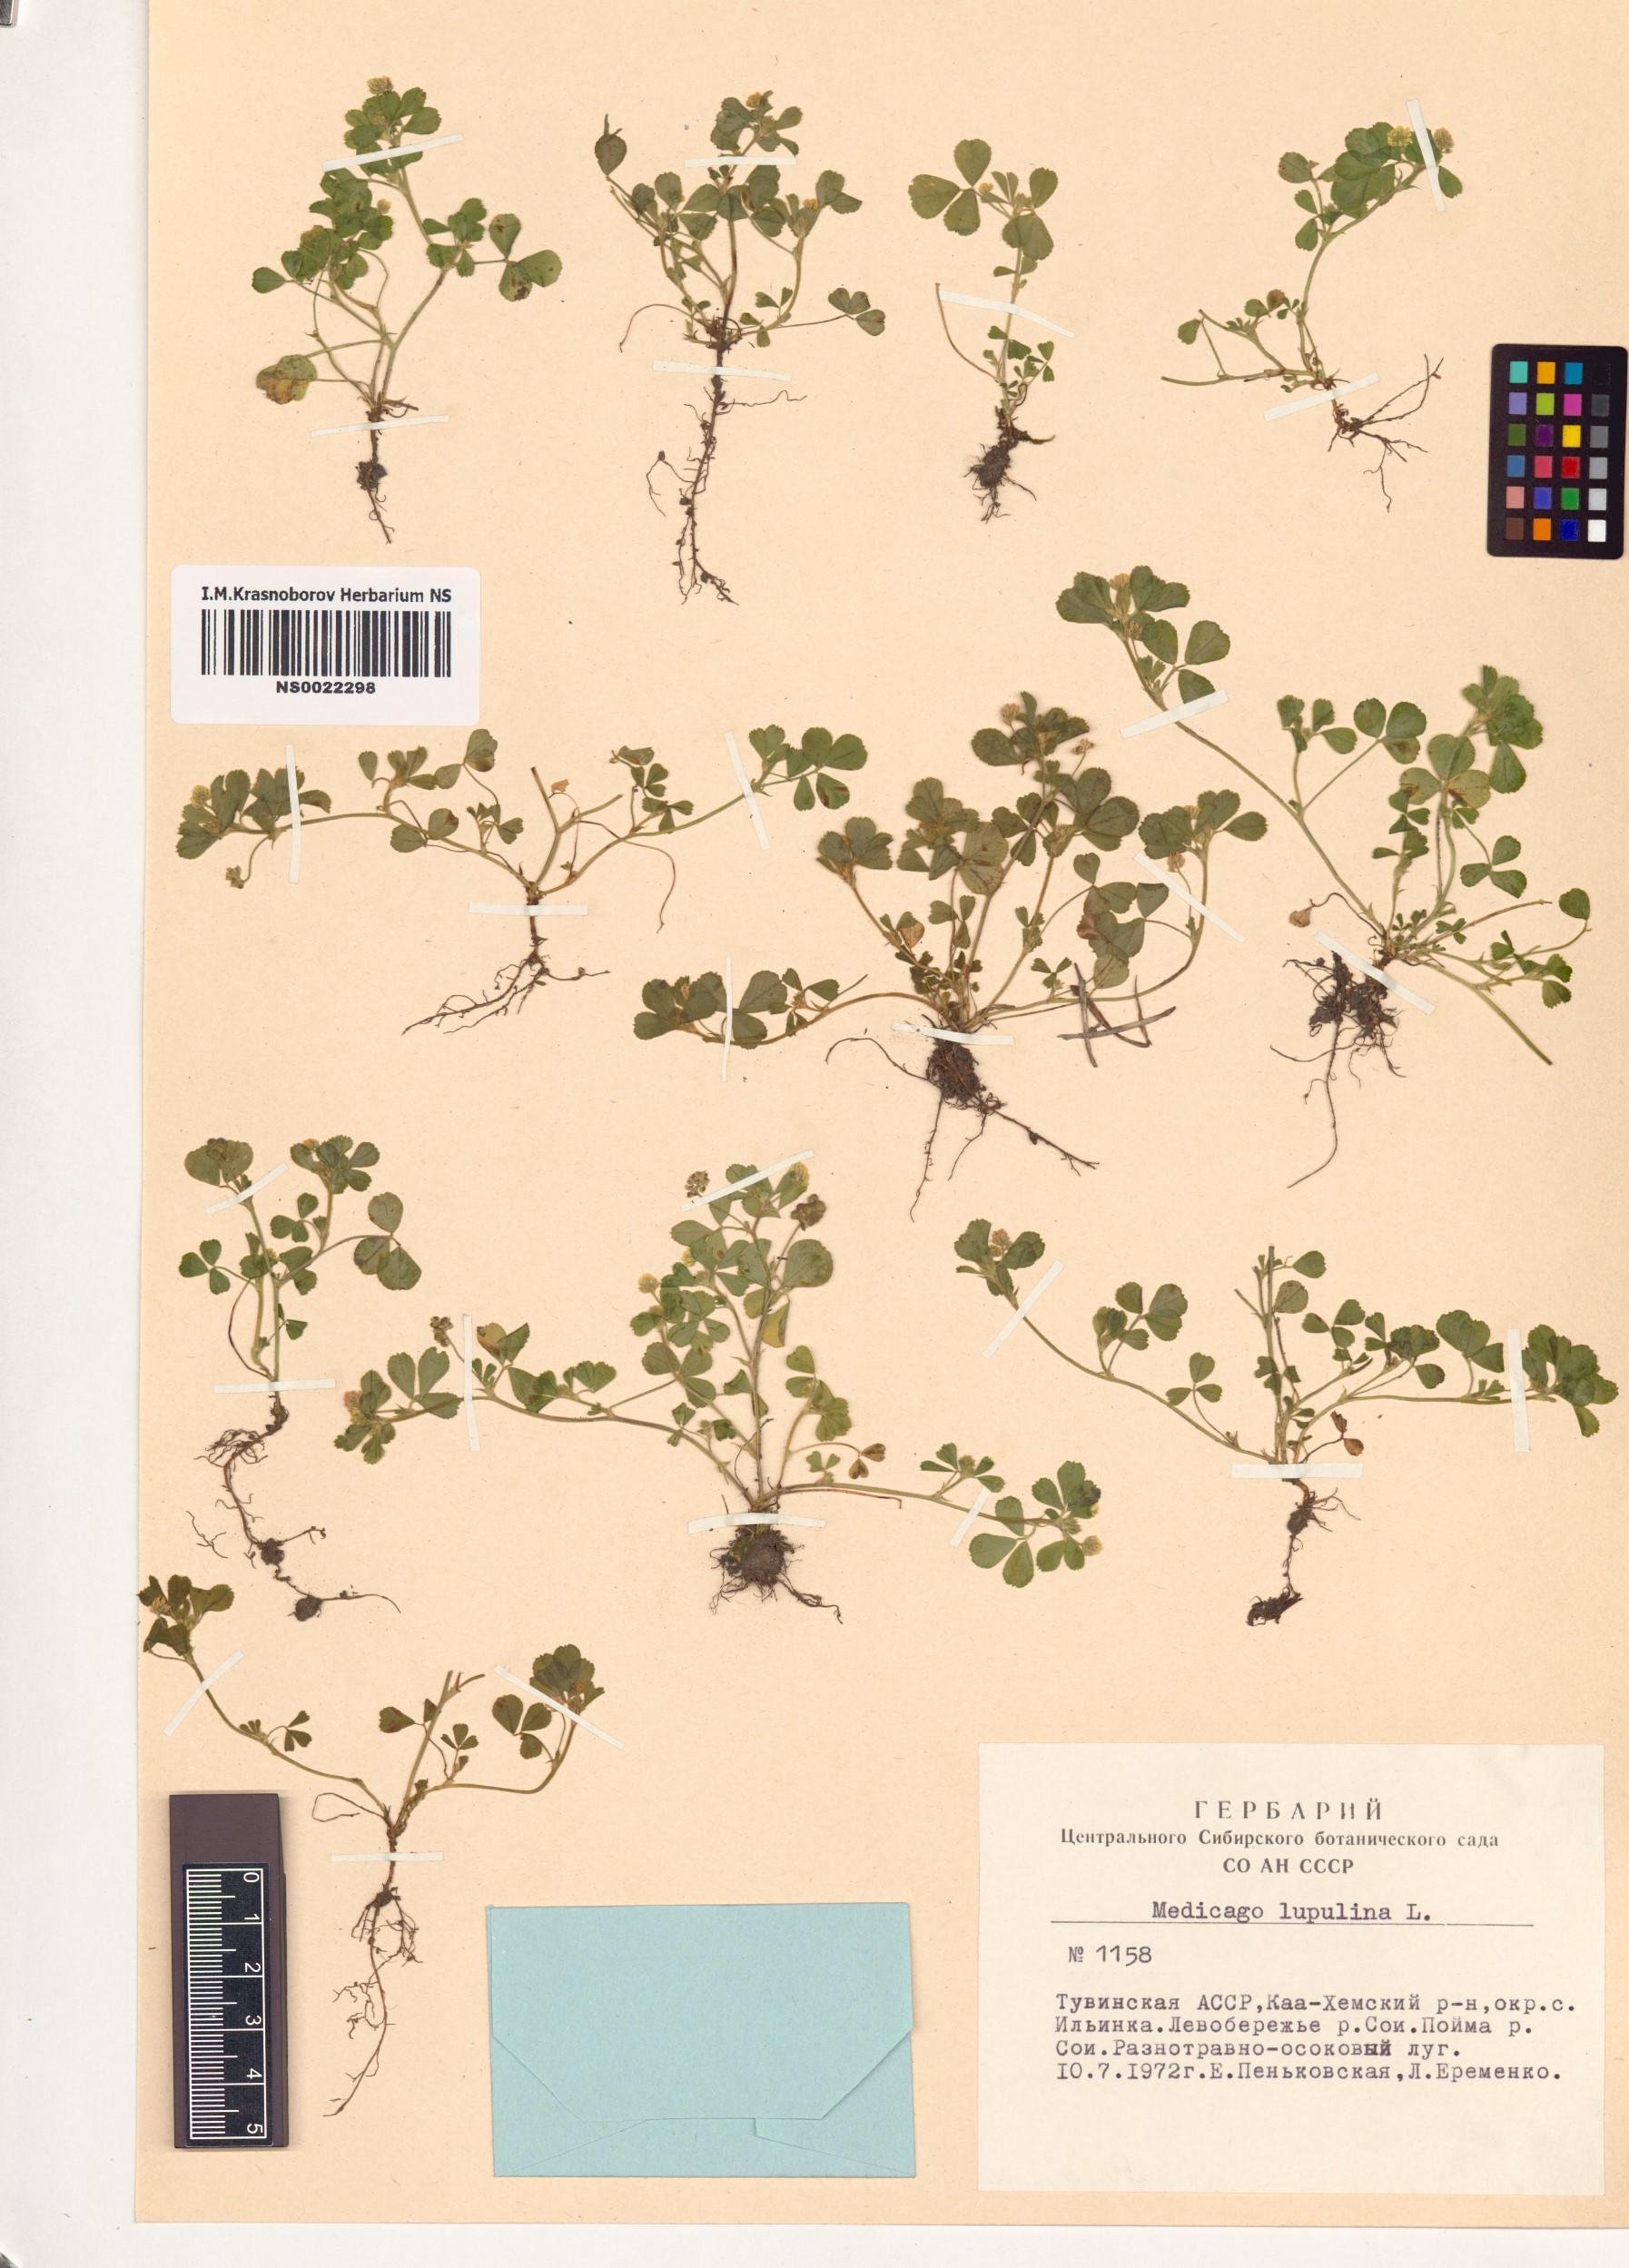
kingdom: Plantae
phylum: Tracheophyta
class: Magnoliopsida
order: Fabales
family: Fabaceae
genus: Medicago
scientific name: Medicago lupulina
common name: Black medick
